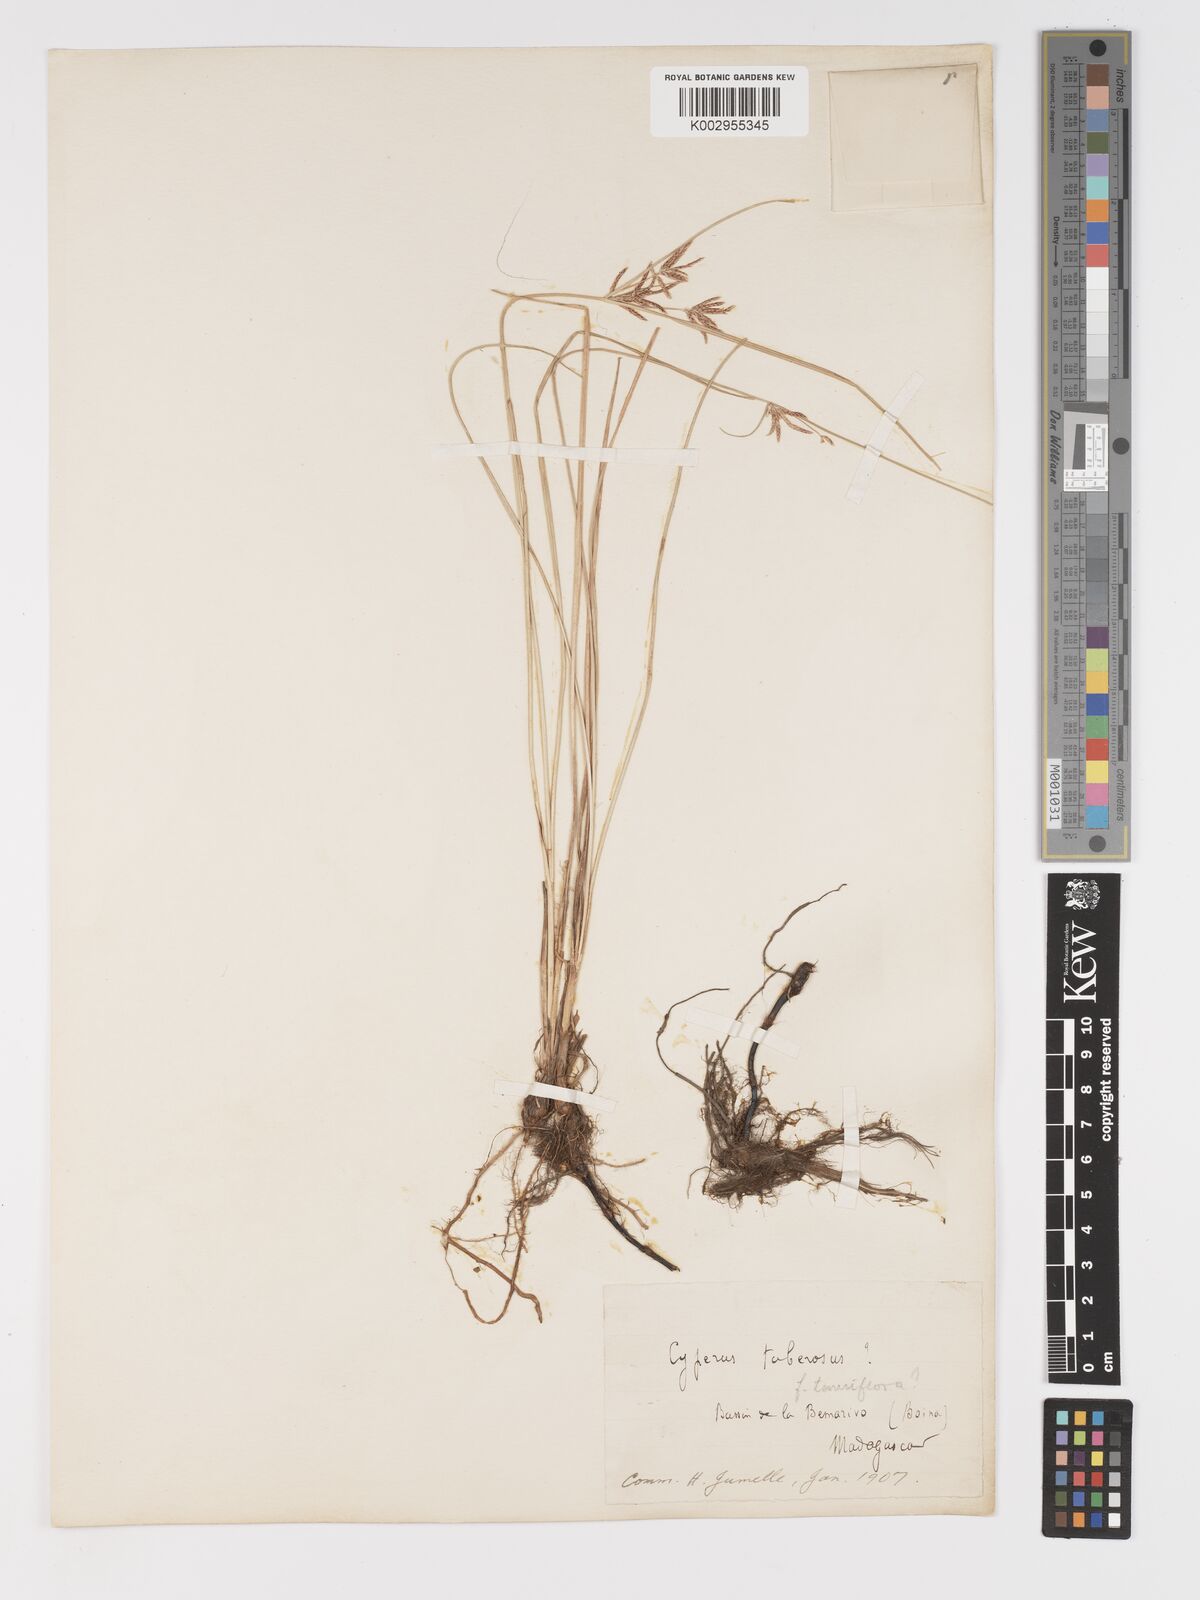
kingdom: Plantae
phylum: Tracheophyta
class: Liliopsida
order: Poales
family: Cyperaceae
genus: Cyperus
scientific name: Cyperus maculatus
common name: Maculated sedge
